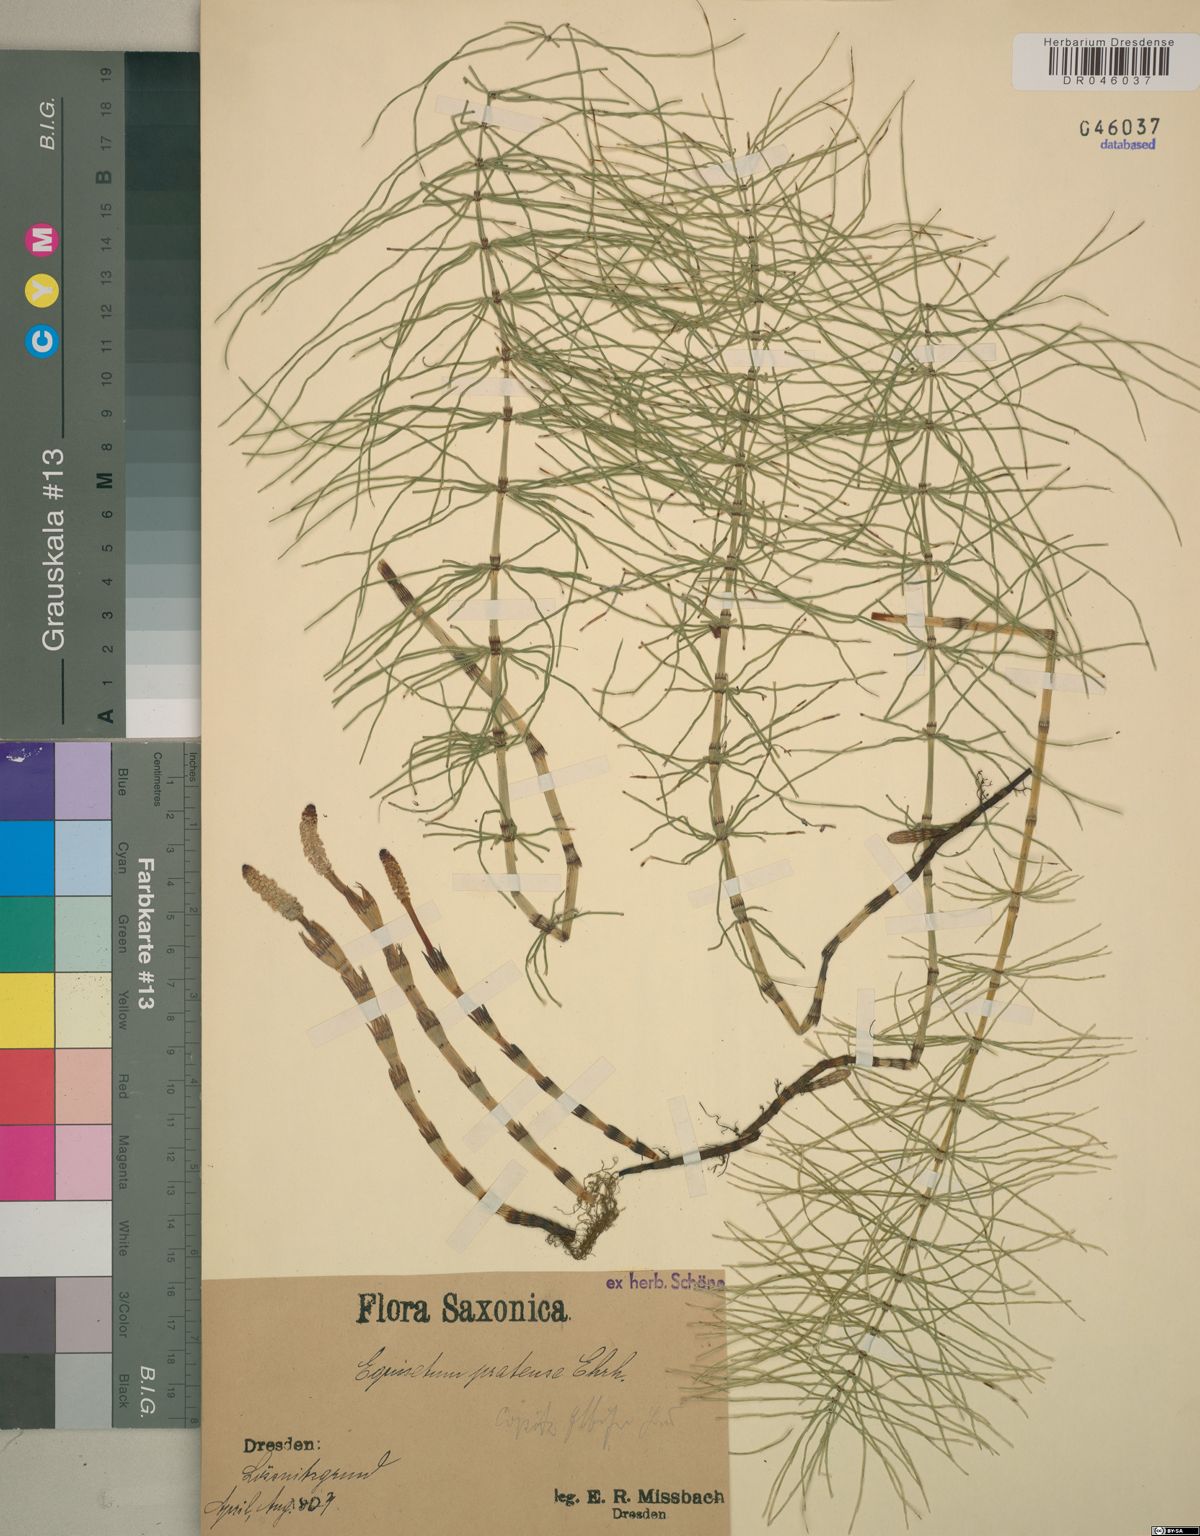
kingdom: Plantae
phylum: Tracheophyta
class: Polypodiopsida
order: Equisetales
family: Equisetaceae
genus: Equisetum
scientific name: Equisetum pratense
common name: Meadow horsetail
